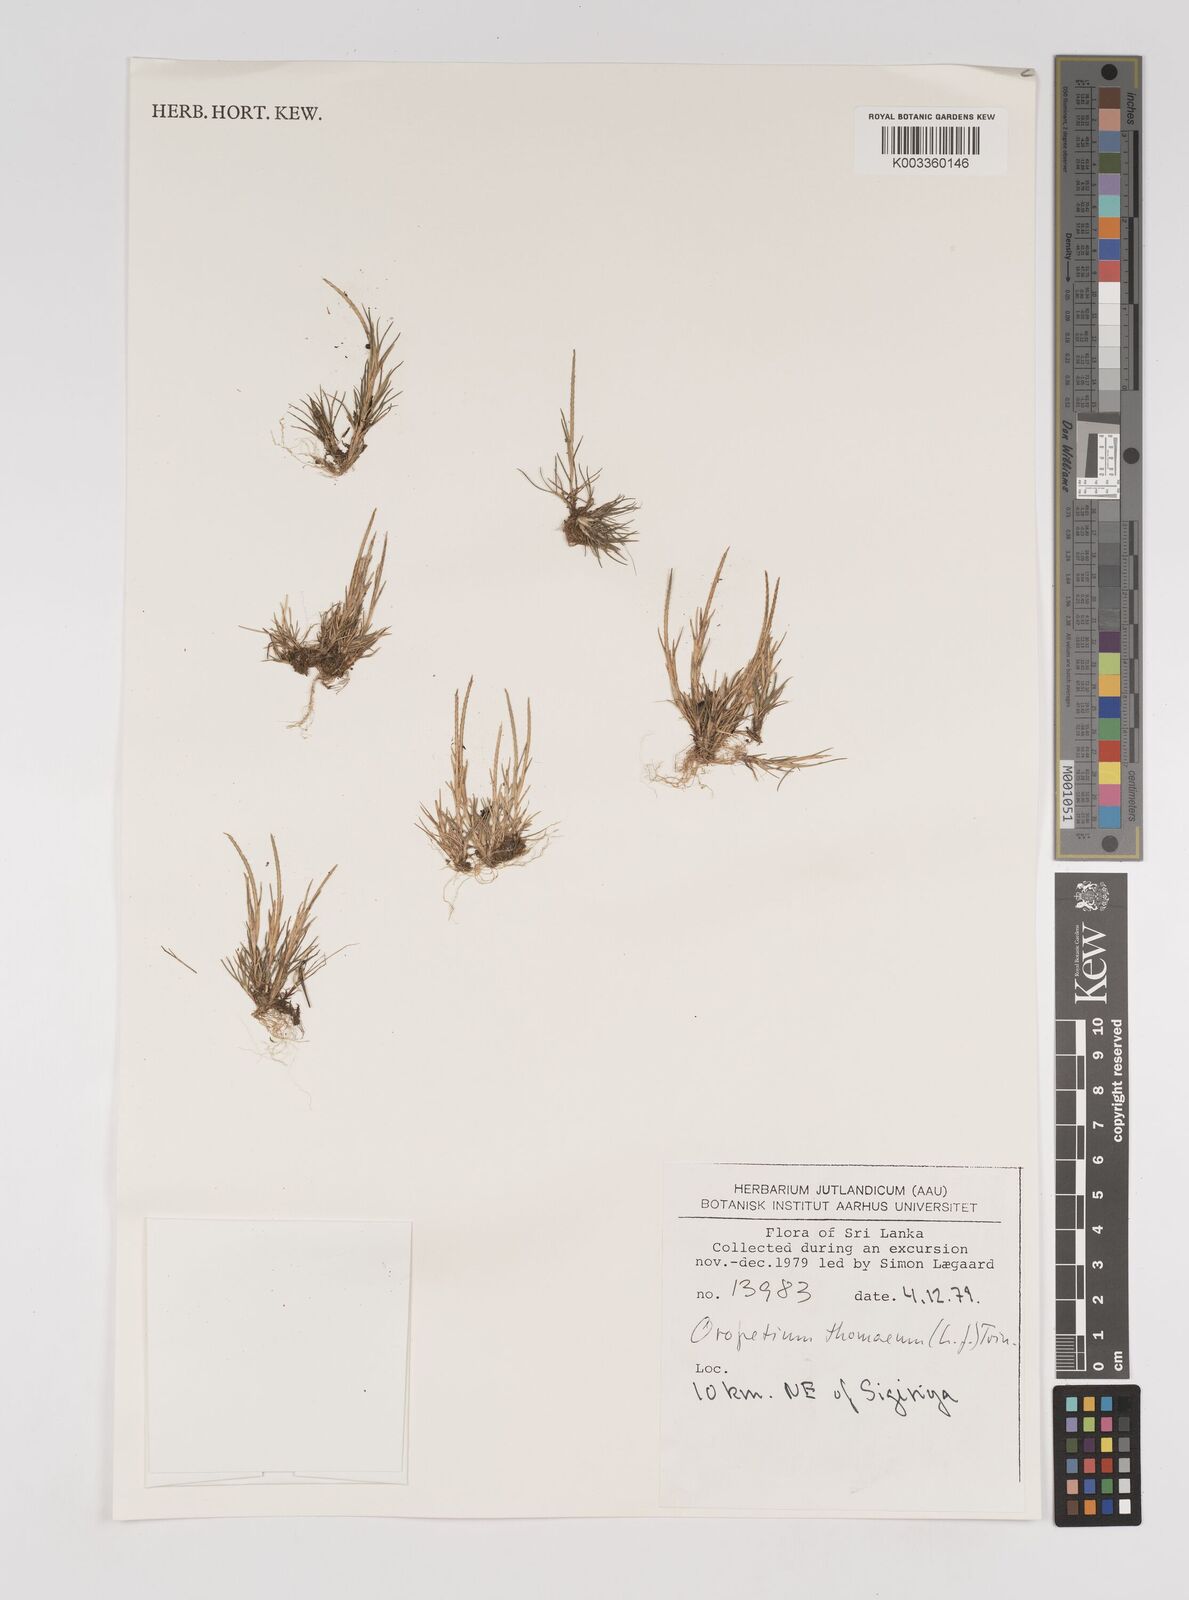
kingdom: Plantae
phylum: Tracheophyta
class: Liliopsida
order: Poales
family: Poaceae
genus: Oropetium
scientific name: Oropetium thomaeum
